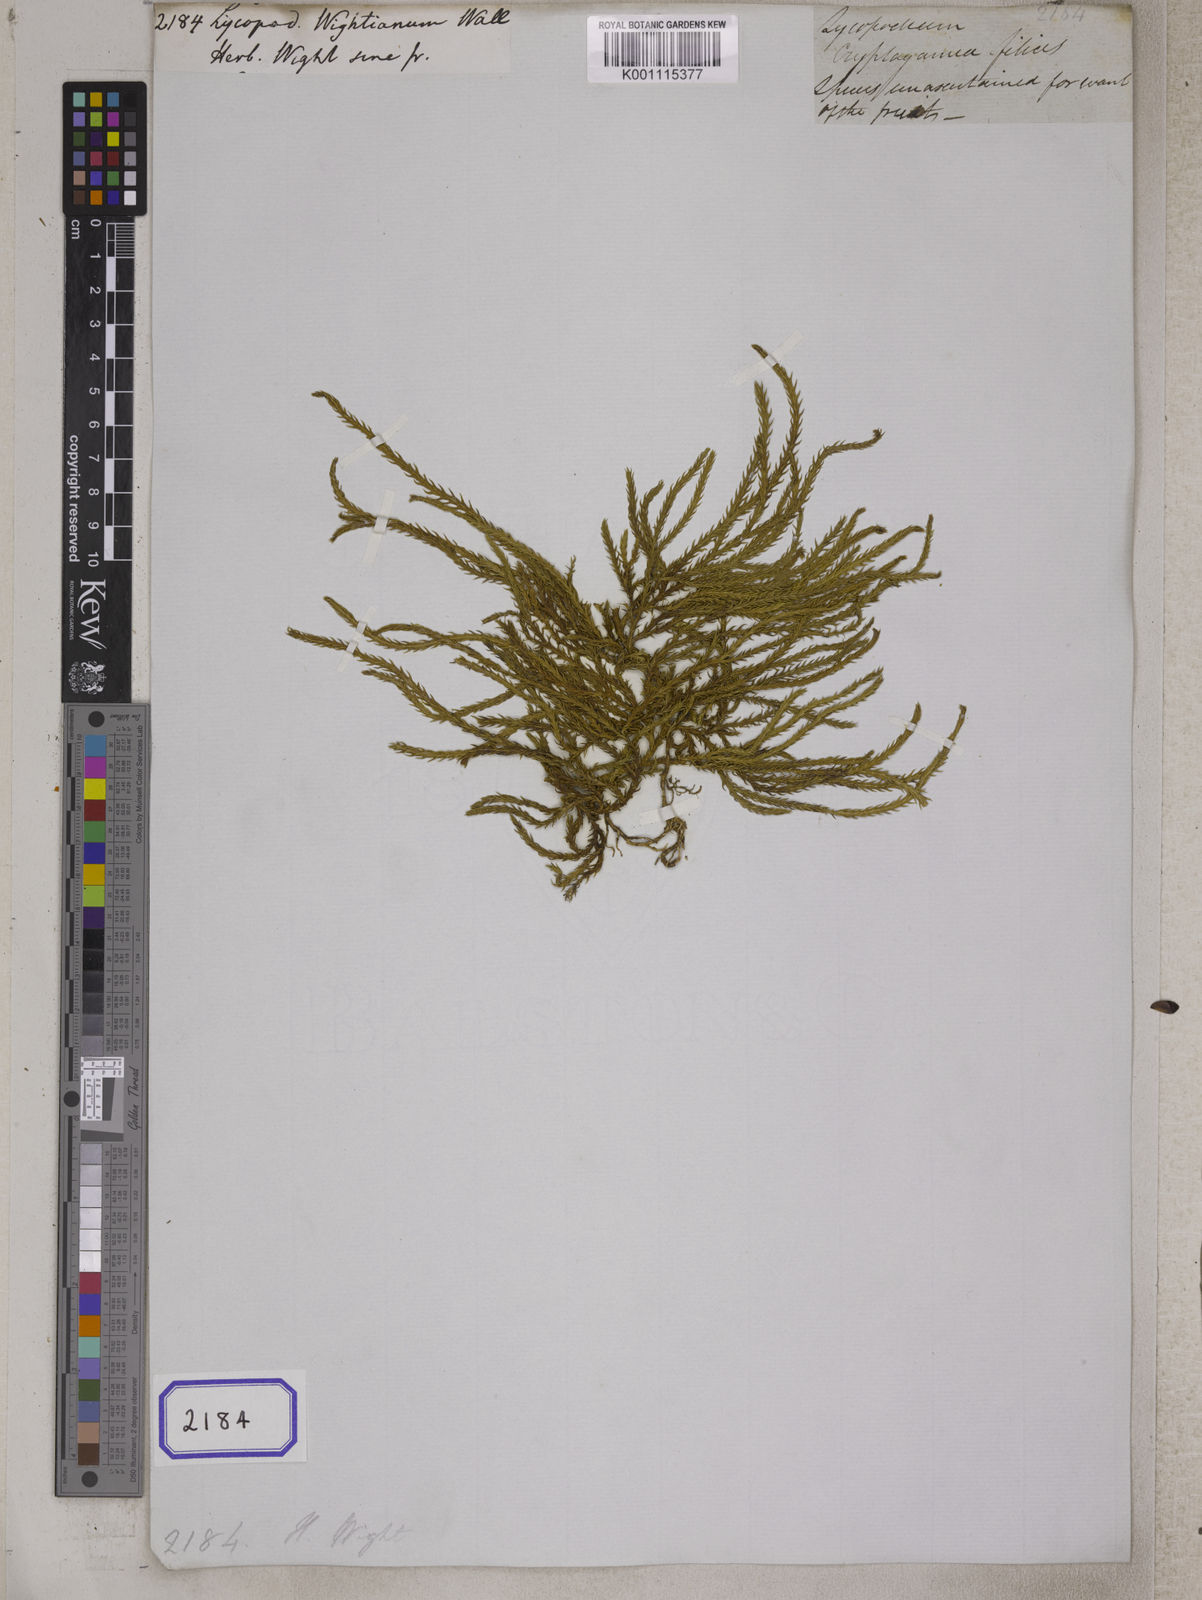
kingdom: Plantae
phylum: Tracheophyta
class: Lycopodiopsida
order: Lycopodiales
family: Lycopodiaceae
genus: Lycopodium
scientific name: Lycopodium
